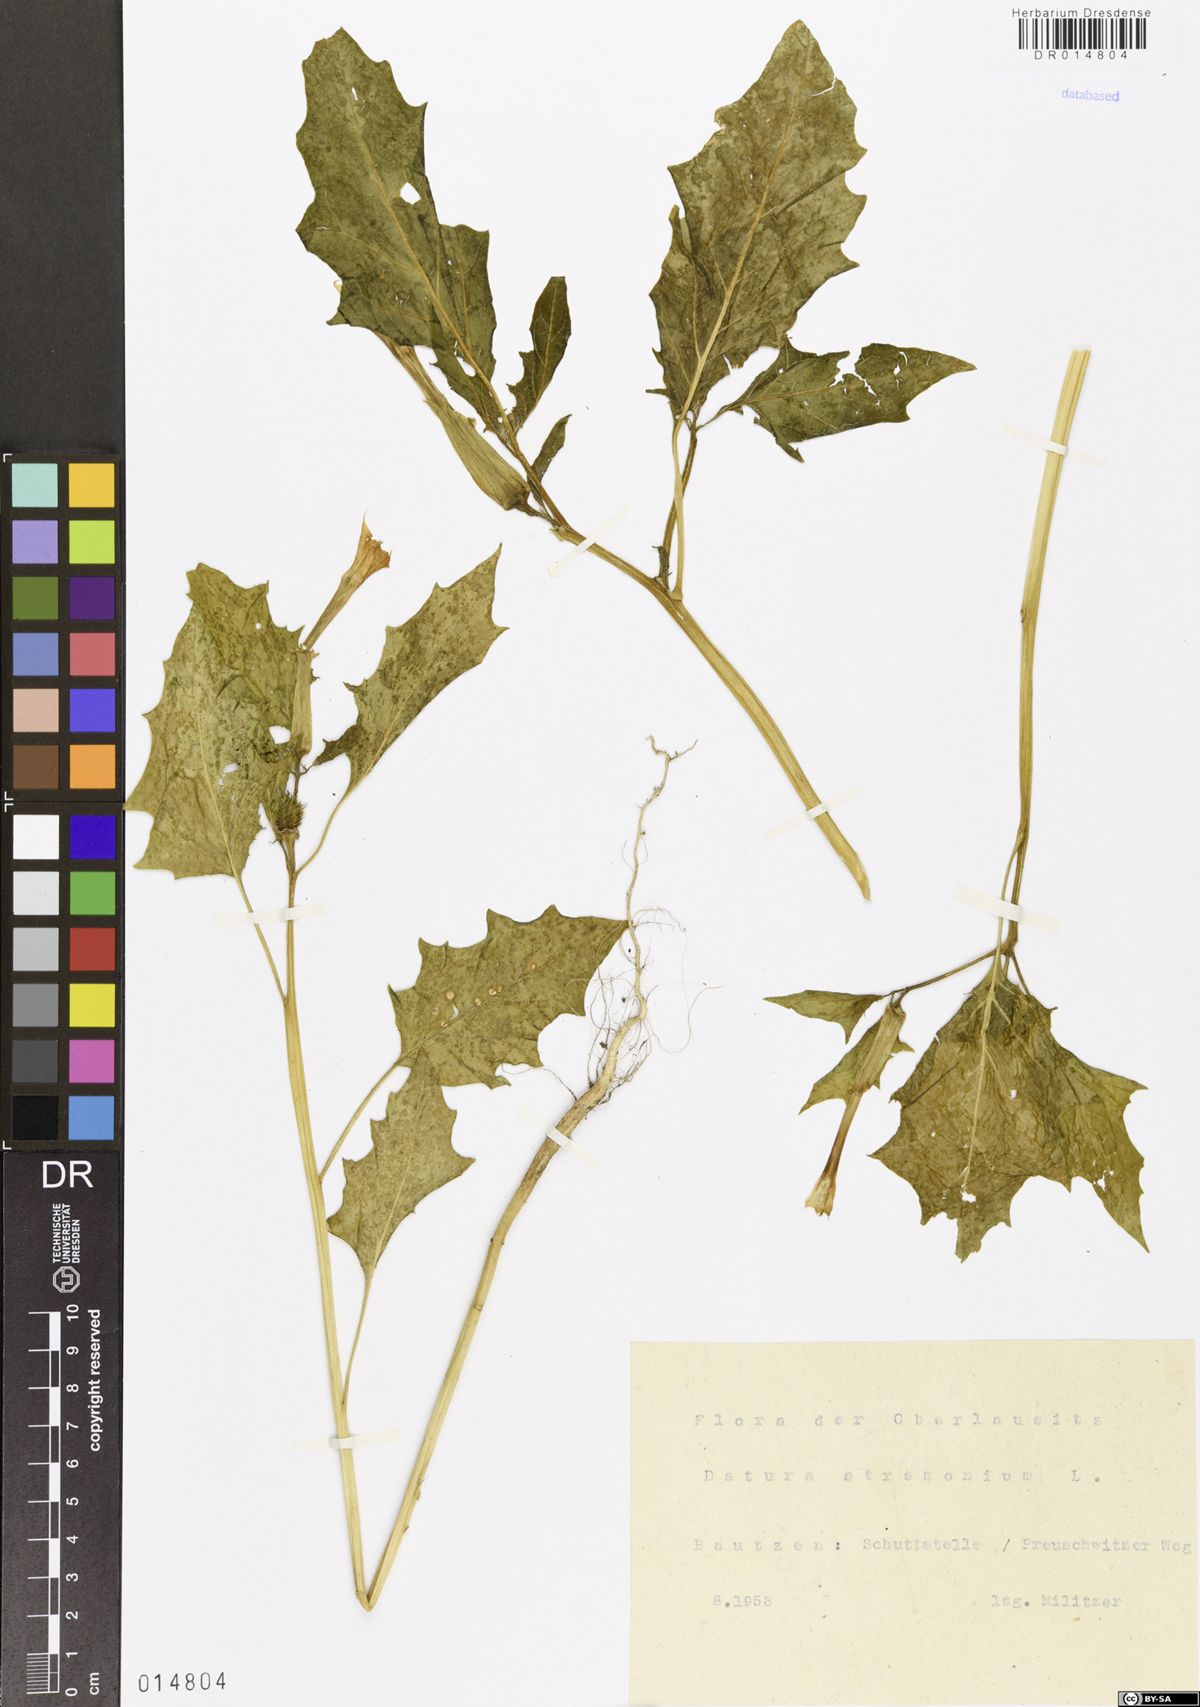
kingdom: Plantae
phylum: Tracheophyta
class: Magnoliopsida
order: Solanales
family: Solanaceae
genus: Datura
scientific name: Datura stramonium
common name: Thorn-apple
